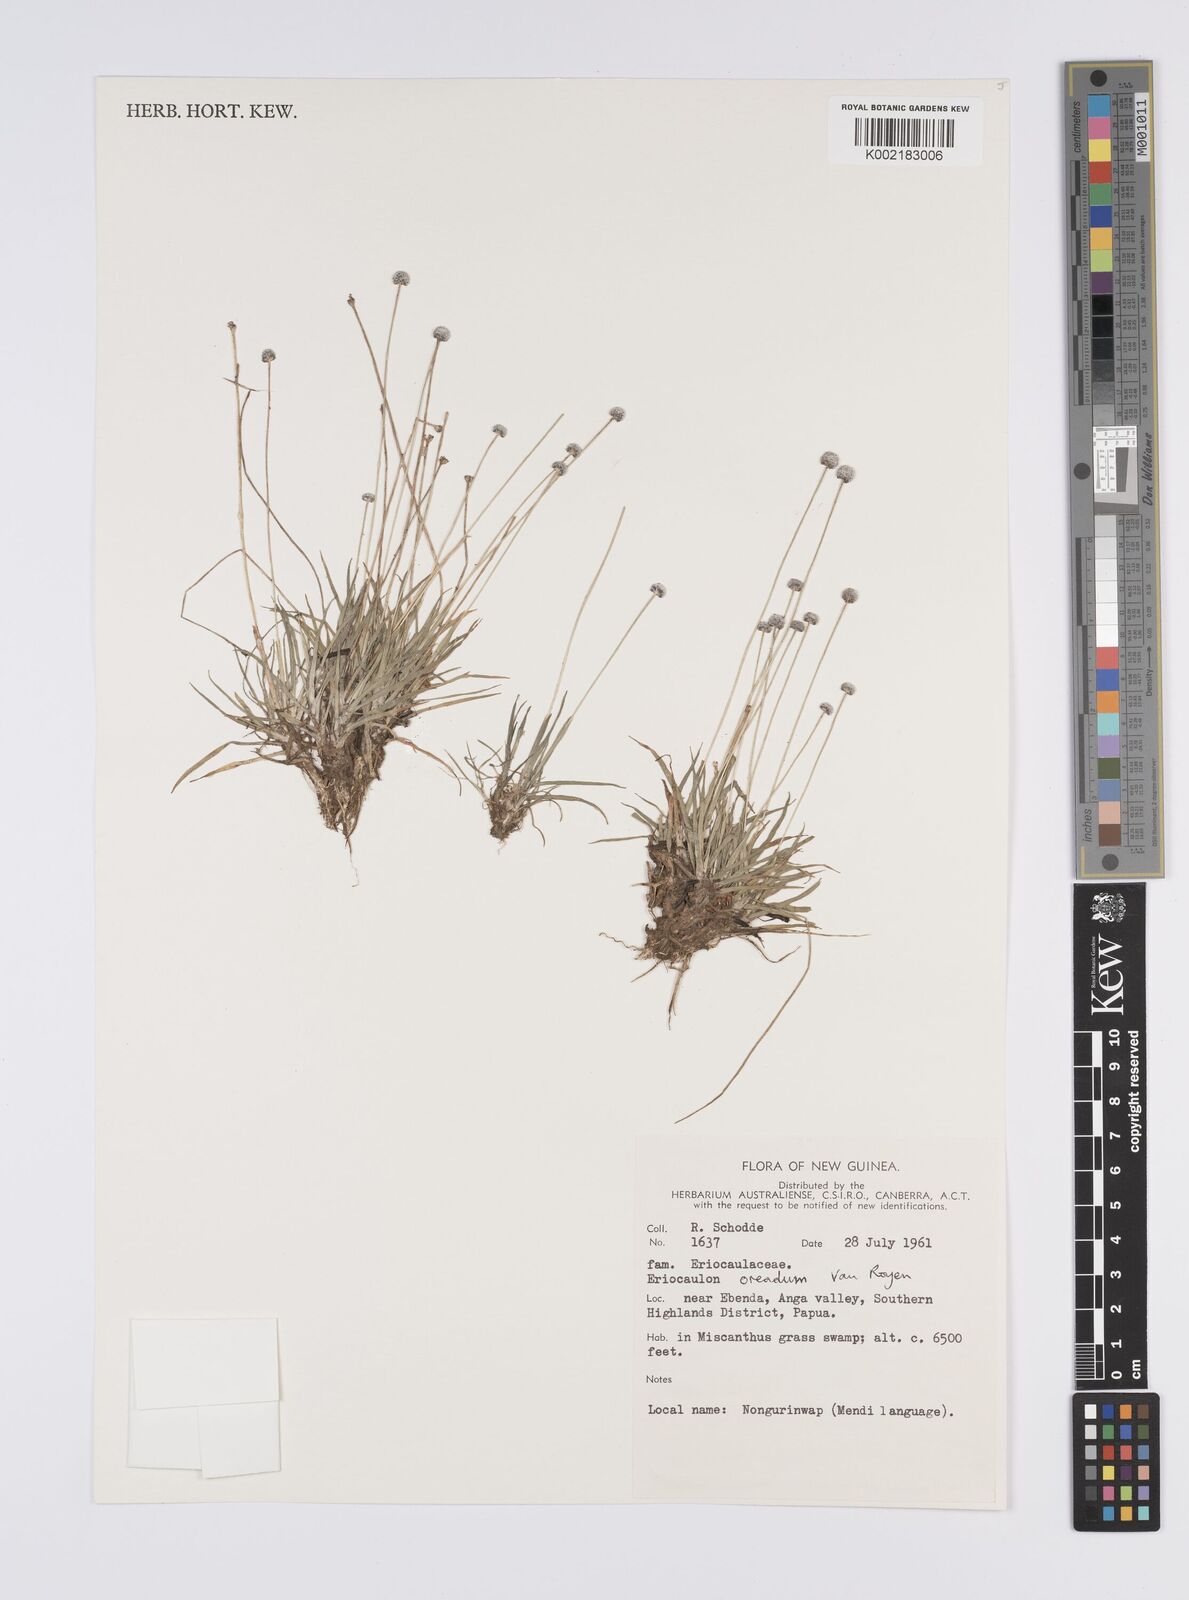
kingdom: Plantae
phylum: Tracheophyta
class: Liliopsida
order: Poales
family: Eriocaulaceae
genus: Eriocaulon
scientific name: Eriocaulon oreadum
